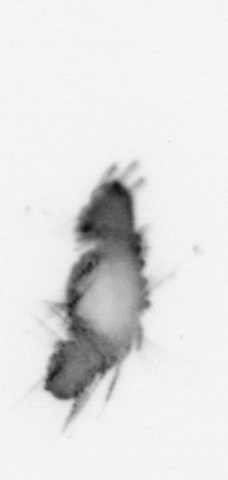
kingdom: Animalia
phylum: Annelida
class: Polychaeta
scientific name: Polychaeta
